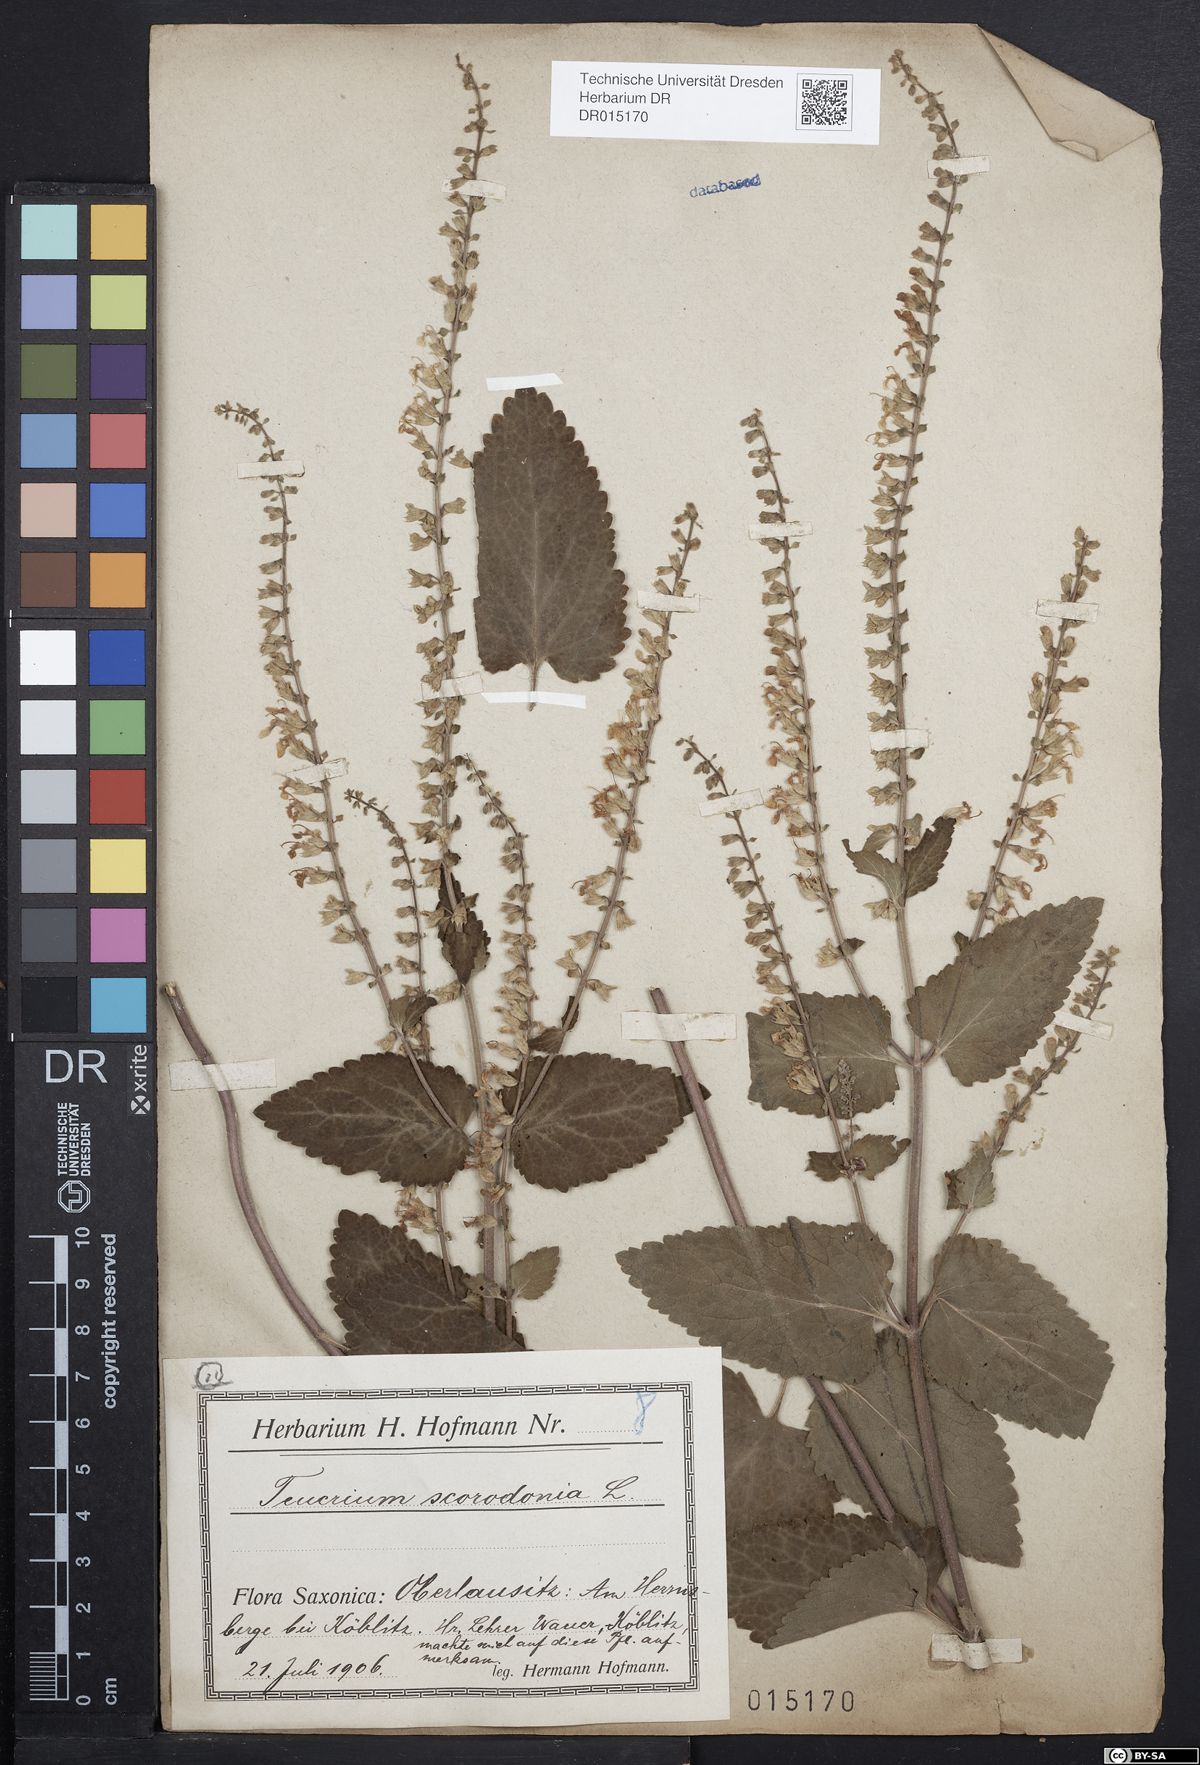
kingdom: Plantae
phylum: Tracheophyta
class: Magnoliopsida
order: Lamiales
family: Lamiaceae
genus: Teucrium
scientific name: Teucrium scorodonia
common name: Woodland germander
